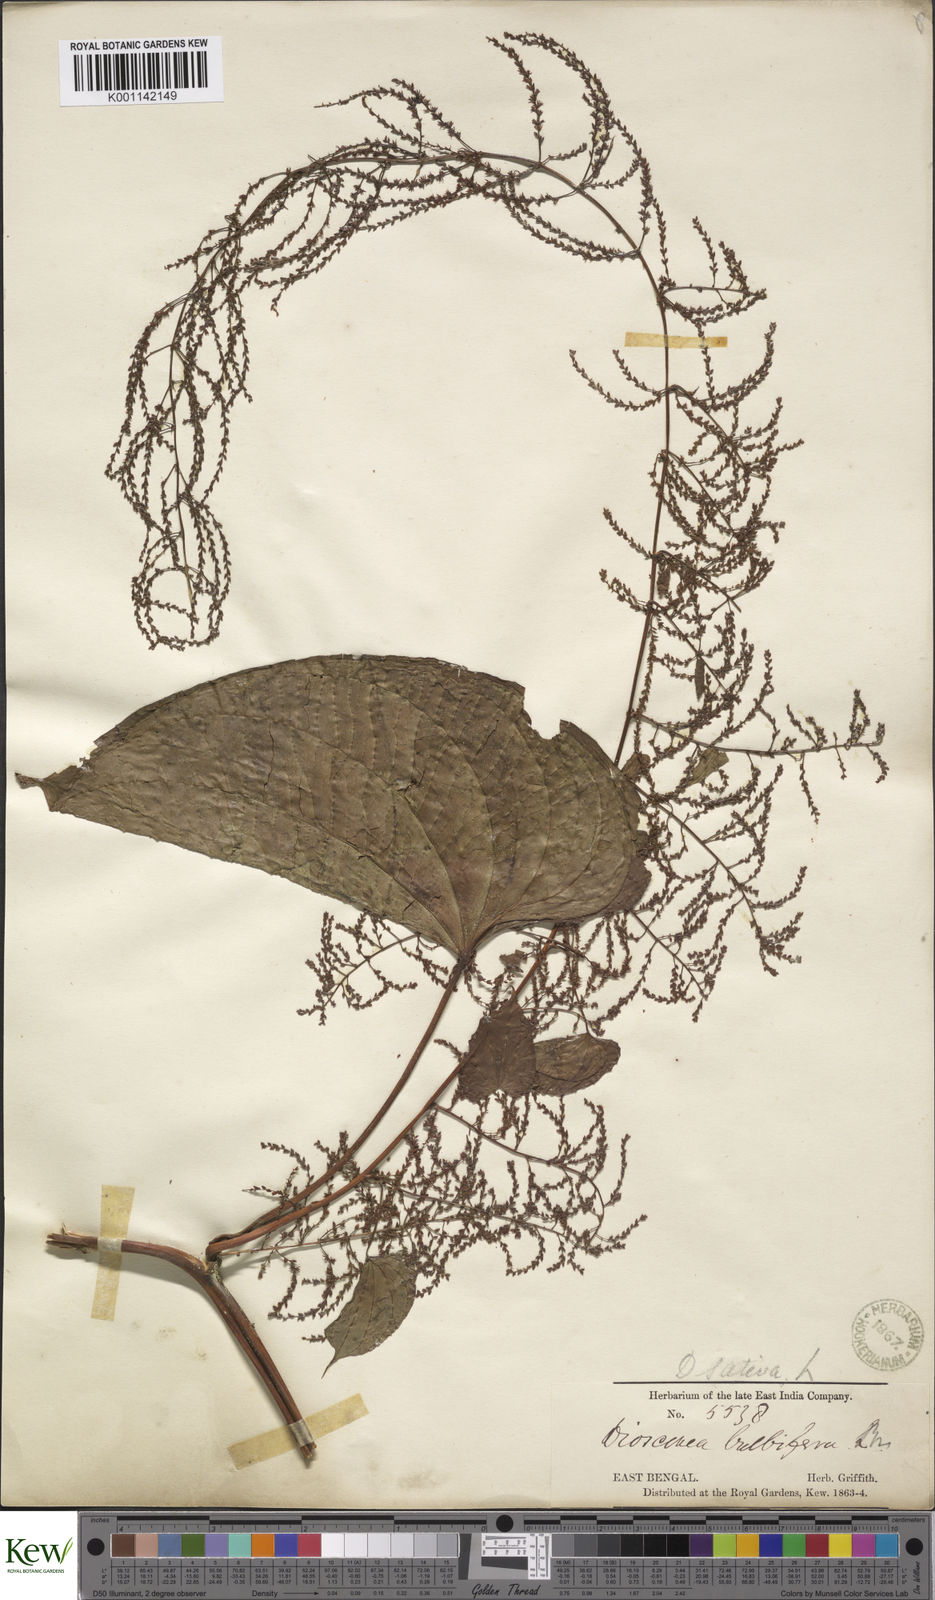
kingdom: Plantae
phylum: Tracheophyta
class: Liliopsida
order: Dioscoreales
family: Dioscoreaceae
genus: Dioscorea
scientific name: Dioscorea bulbifera
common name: Air yam
